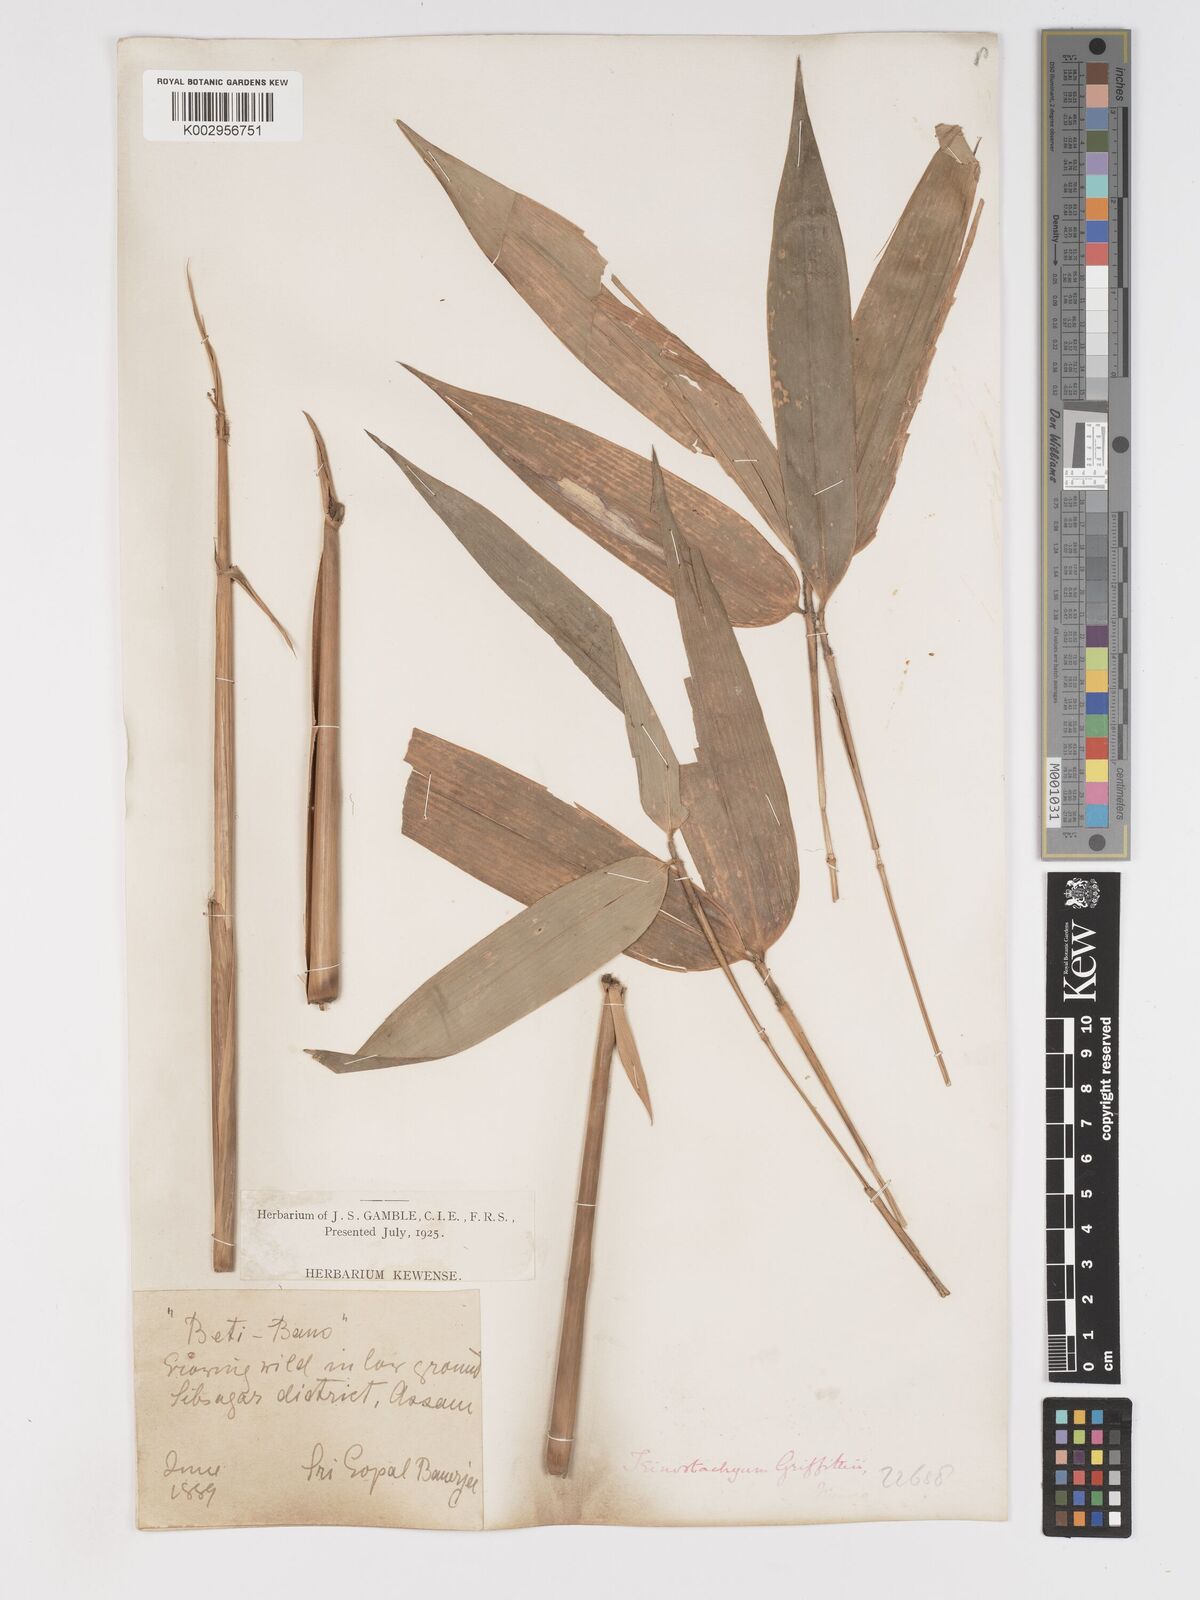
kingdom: Plantae
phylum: Tracheophyta
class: Liliopsida
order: Poales
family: Poaceae
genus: Schizostachyum
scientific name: Schizostachyum griffithii
